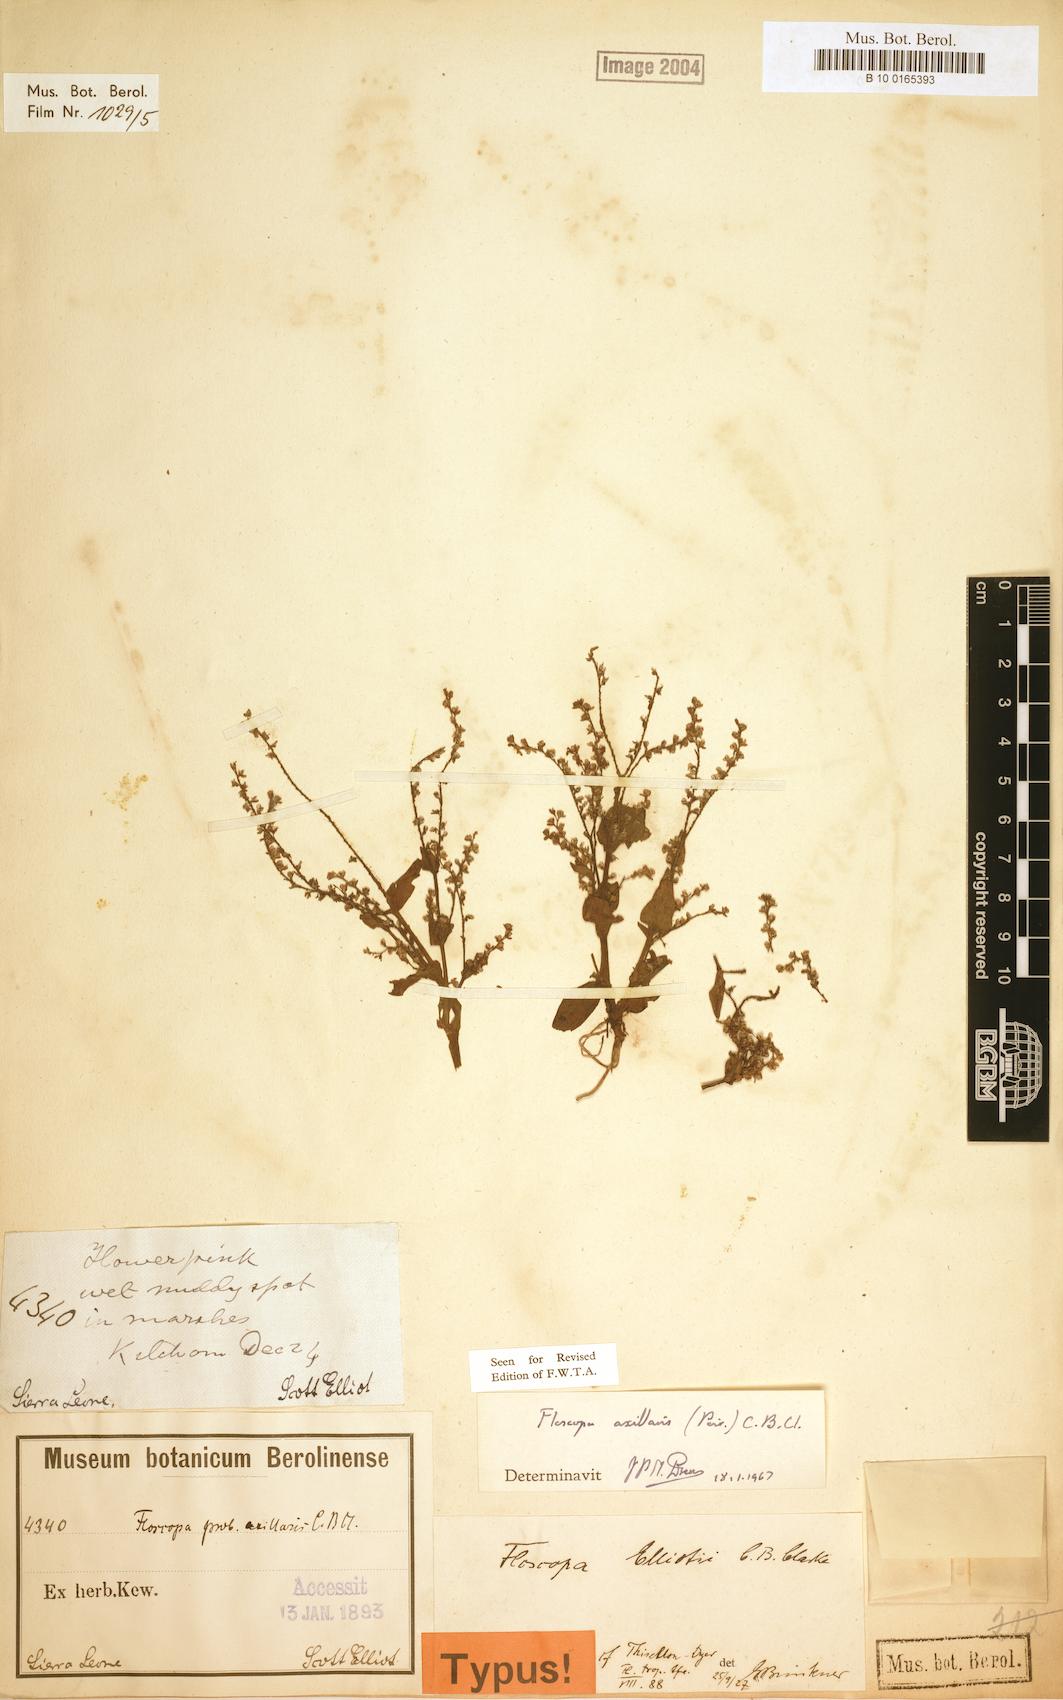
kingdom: Plantae
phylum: Tracheophyta
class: Liliopsida
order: Commelinales
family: Commelinaceae
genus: Floscopa
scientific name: Floscopa axillaris
